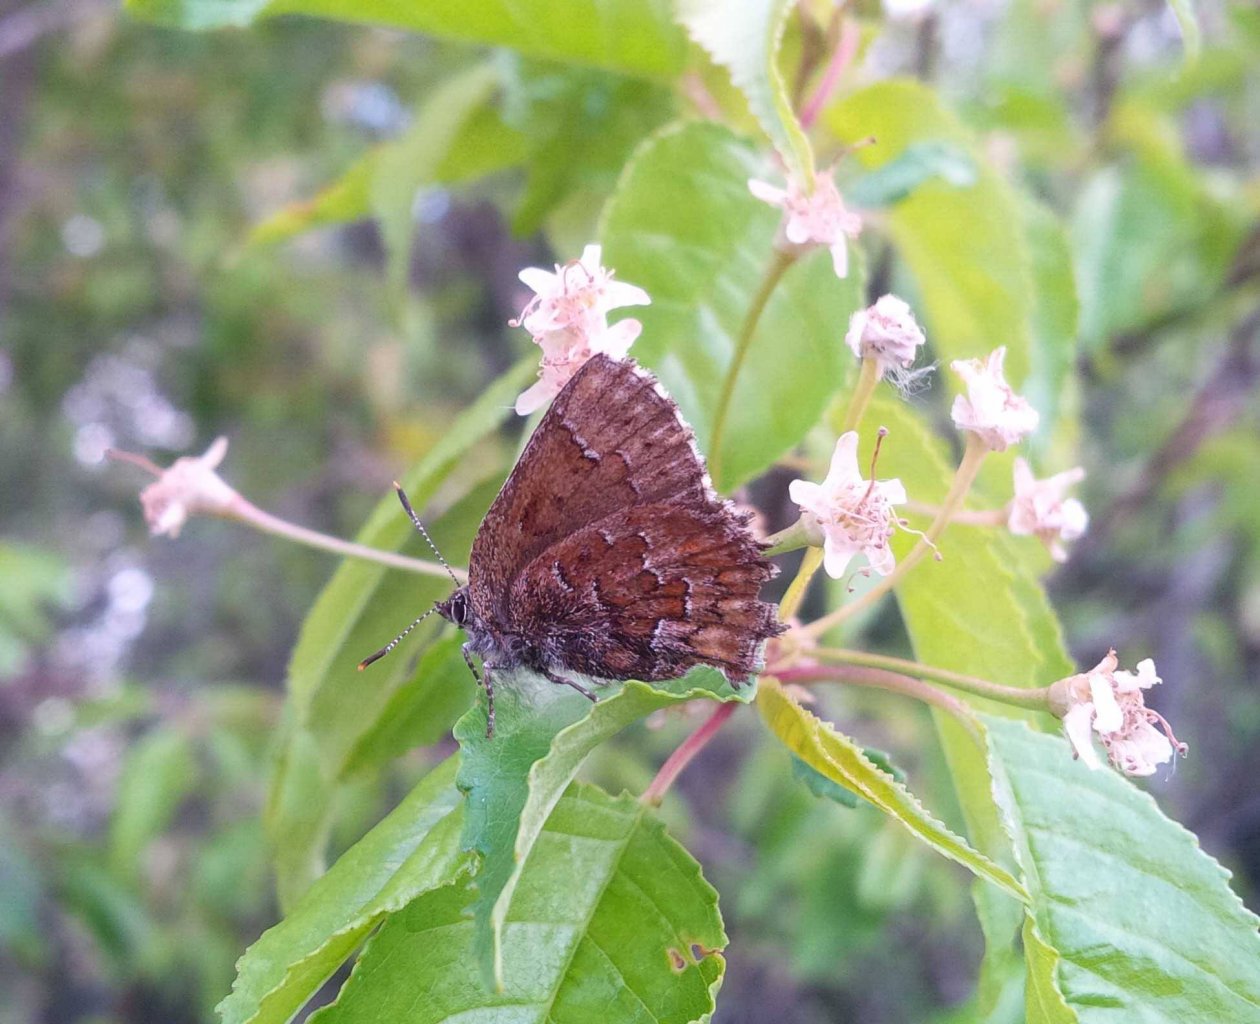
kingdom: Animalia
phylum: Arthropoda
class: Insecta
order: Lepidoptera
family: Lycaenidae
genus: Incisalia
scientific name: Incisalia eryphon
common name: Western Pine Elfin
